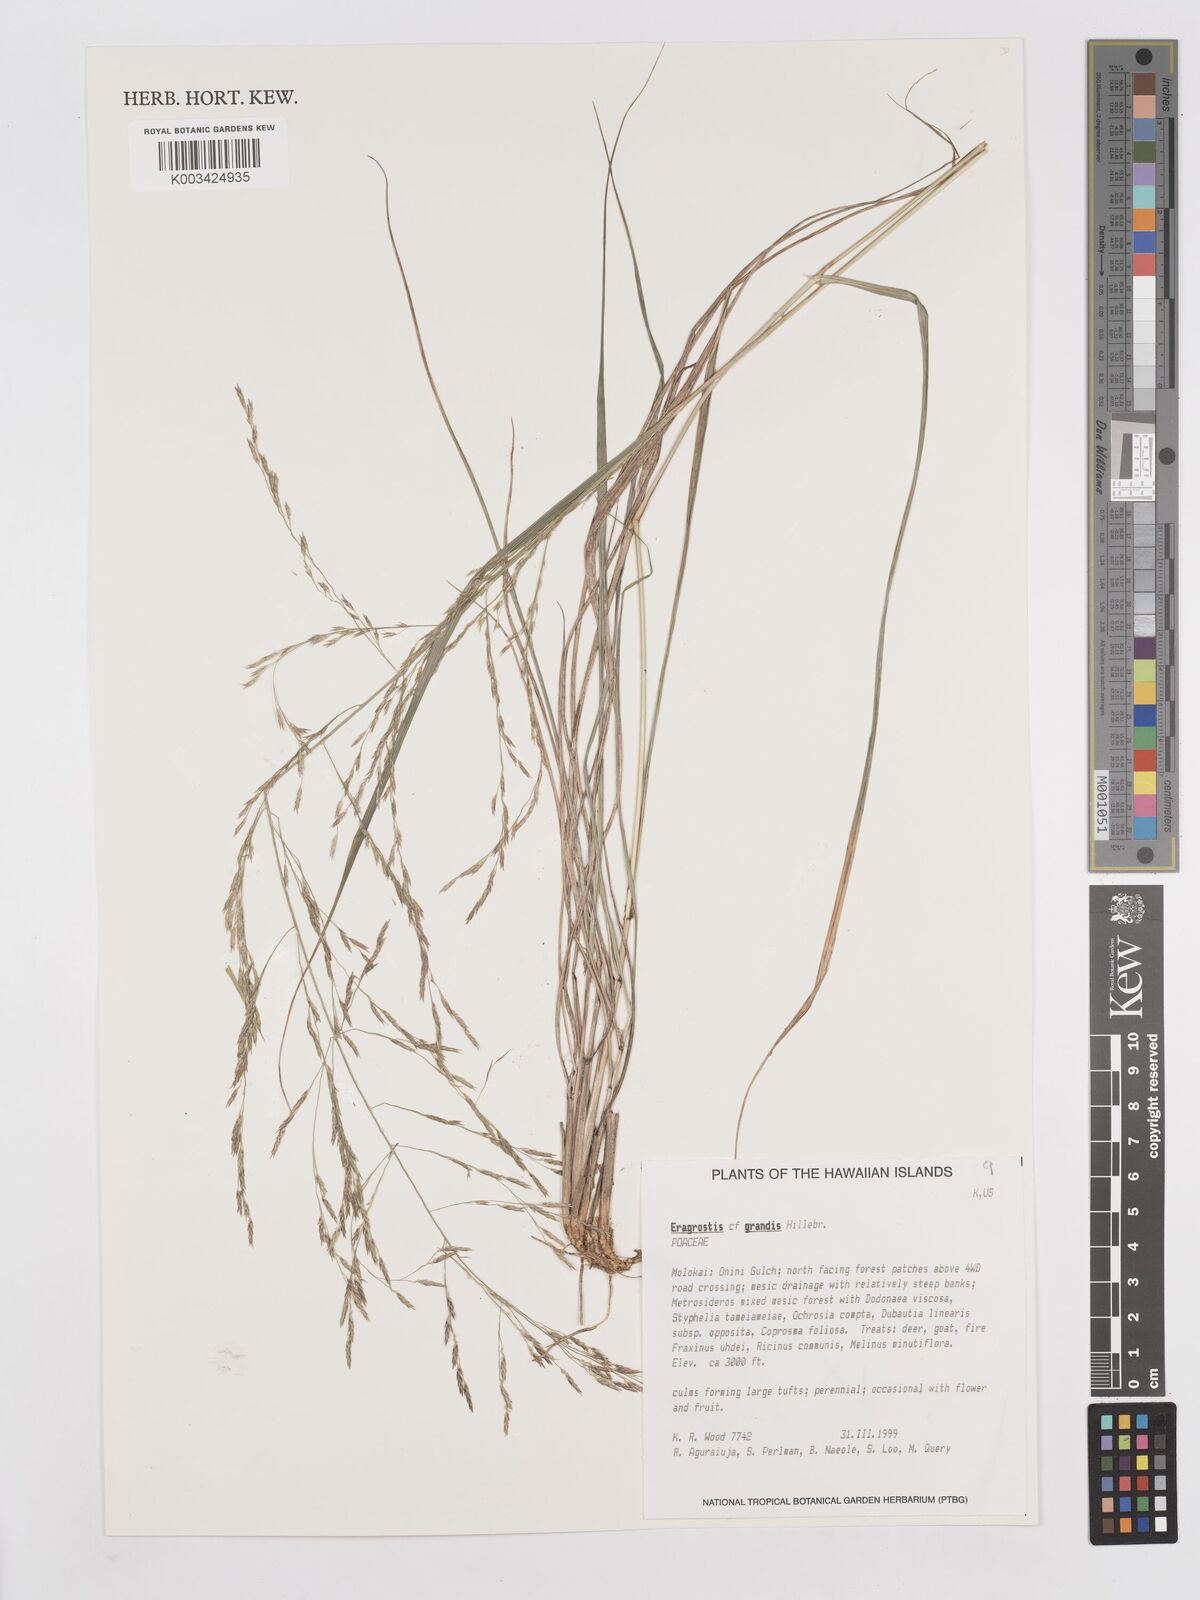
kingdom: Plantae
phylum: Tracheophyta
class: Liliopsida
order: Poales
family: Poaceae
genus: Eragrostis
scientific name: Eragrostis grandis
